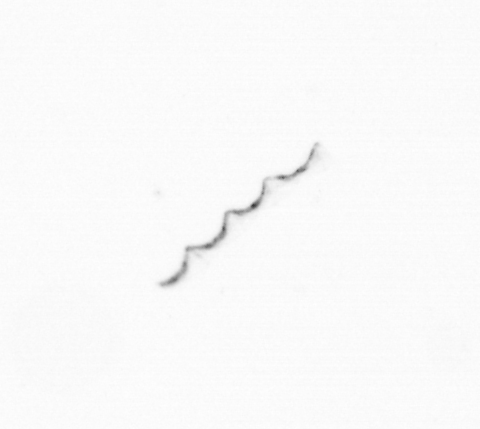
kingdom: Chromista
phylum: Ochrophyta
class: Bacillariophyceae
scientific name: Bacillariophyceae
